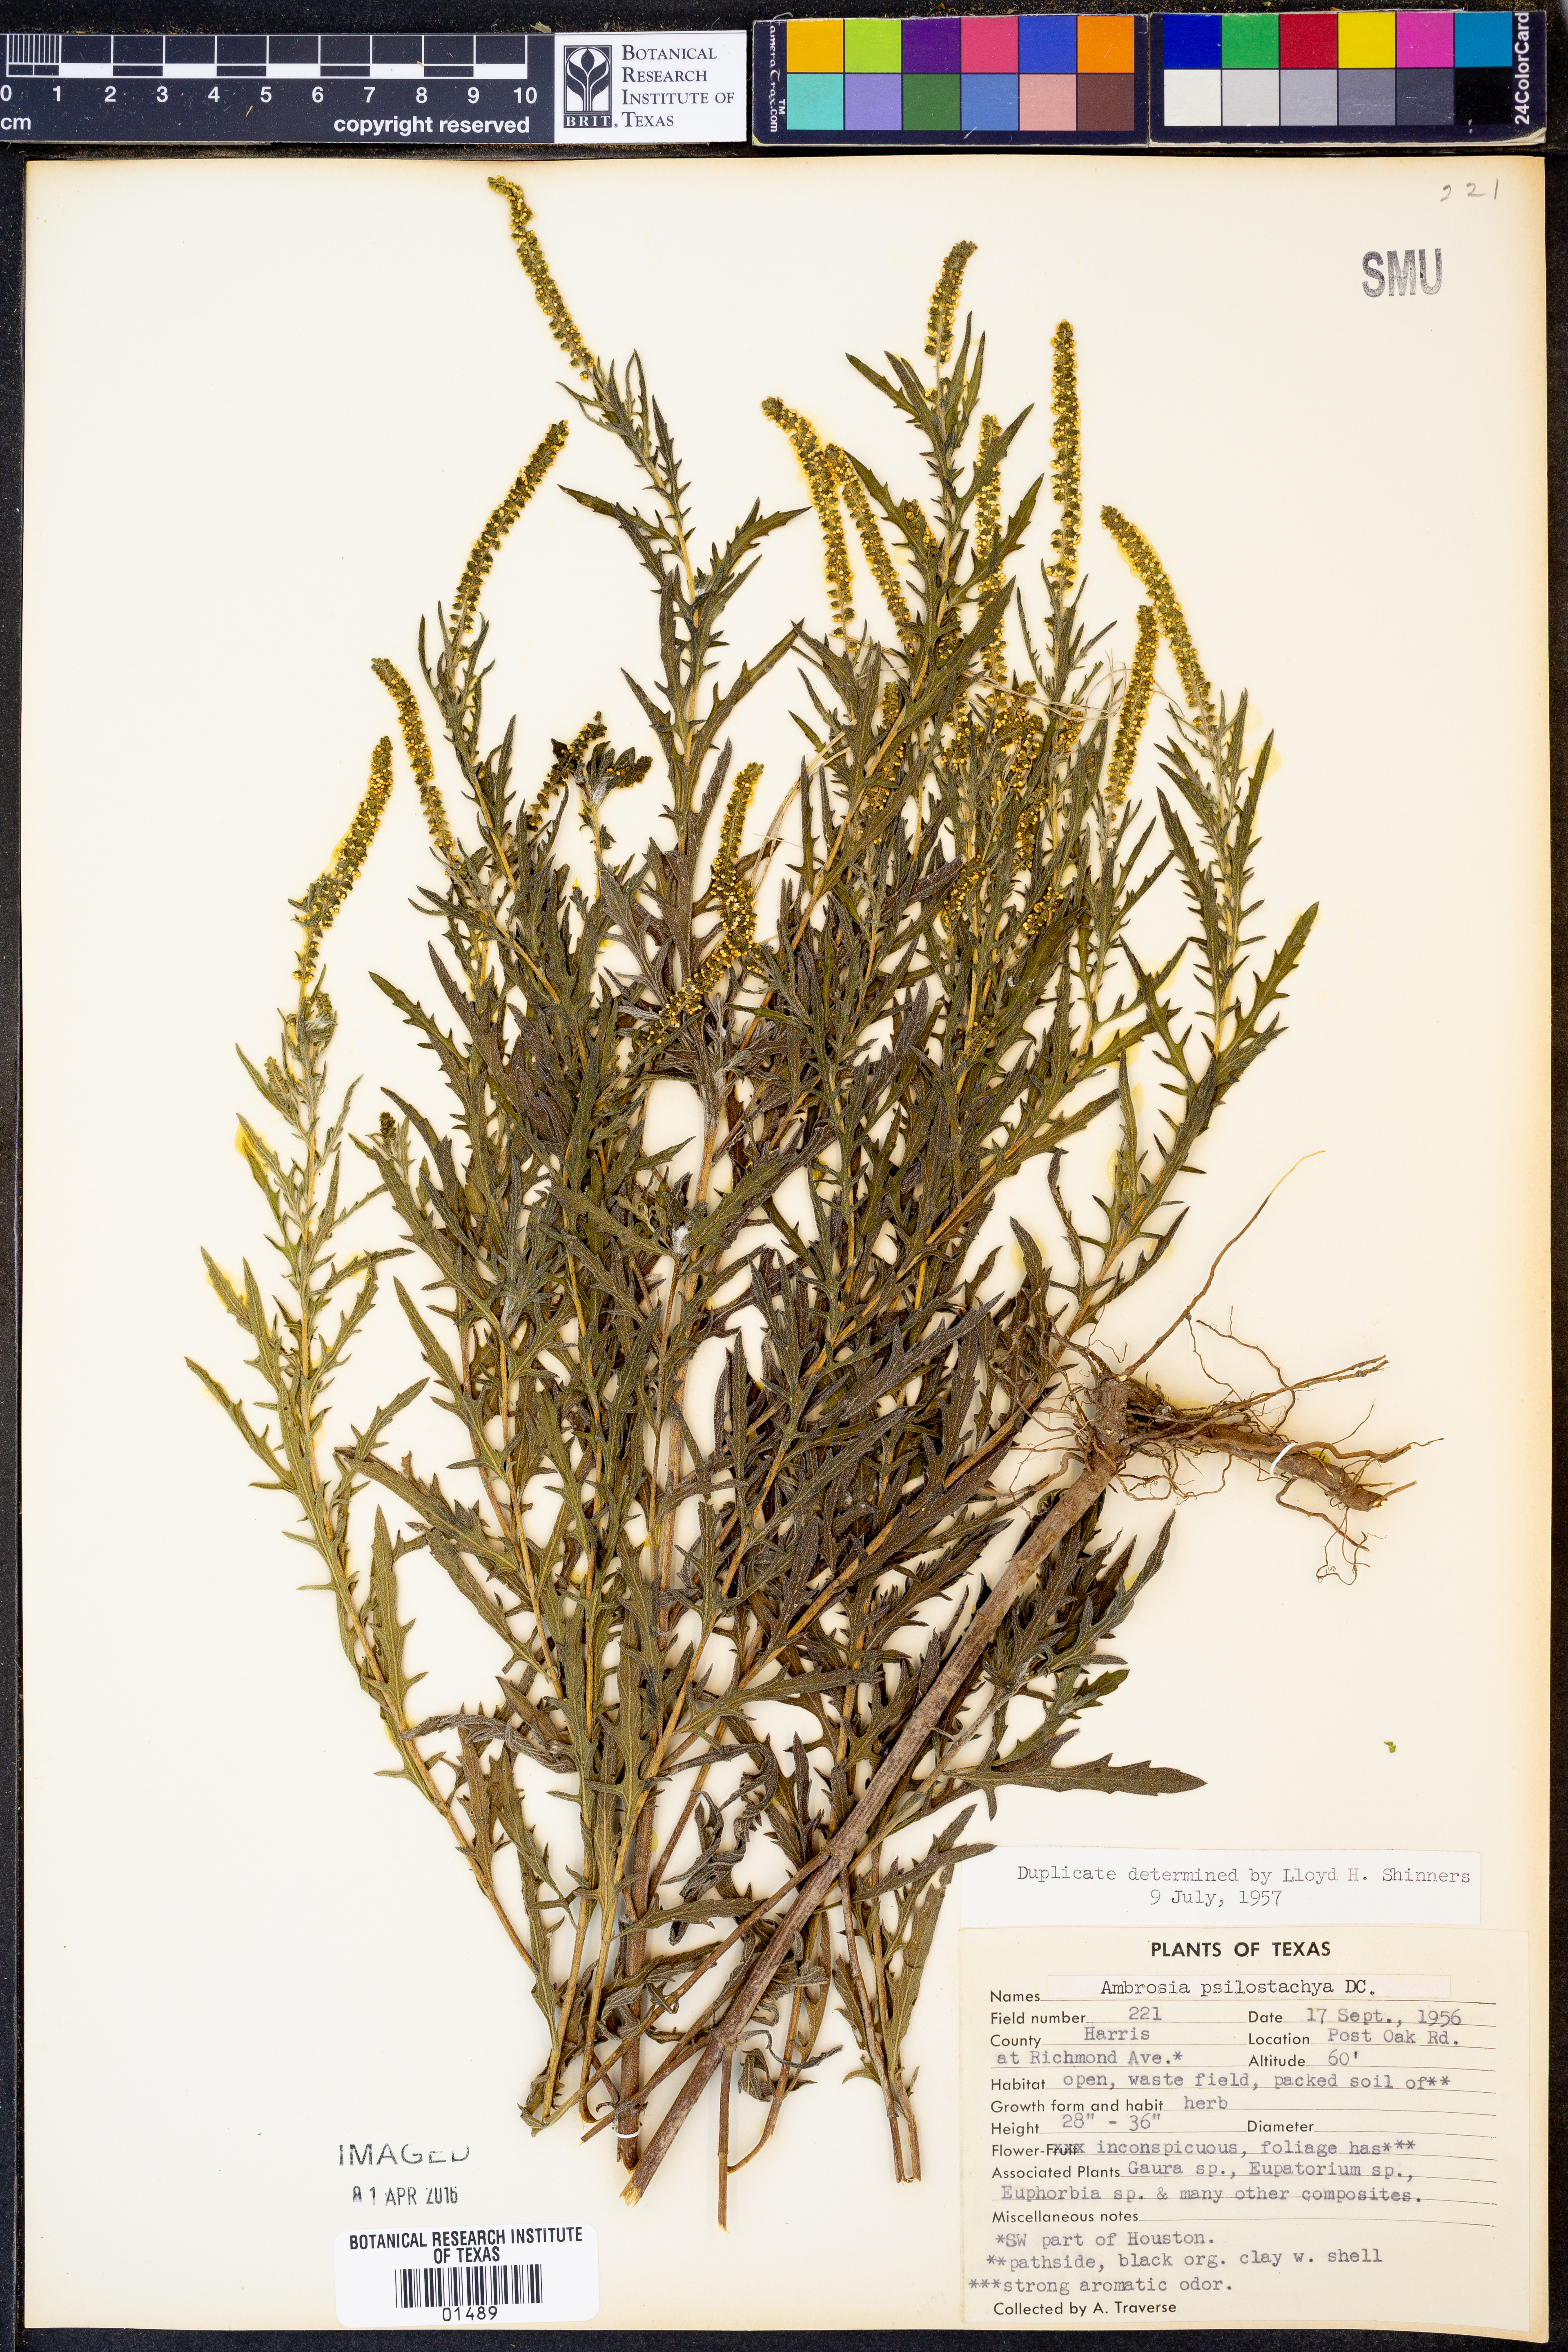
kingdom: Plantae
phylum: Tracheophyta
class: Magnoliopsida
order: Asterales
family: Asteraceae
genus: Ambrosia
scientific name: Ambrosia psilostachya
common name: Perennial ragweed
